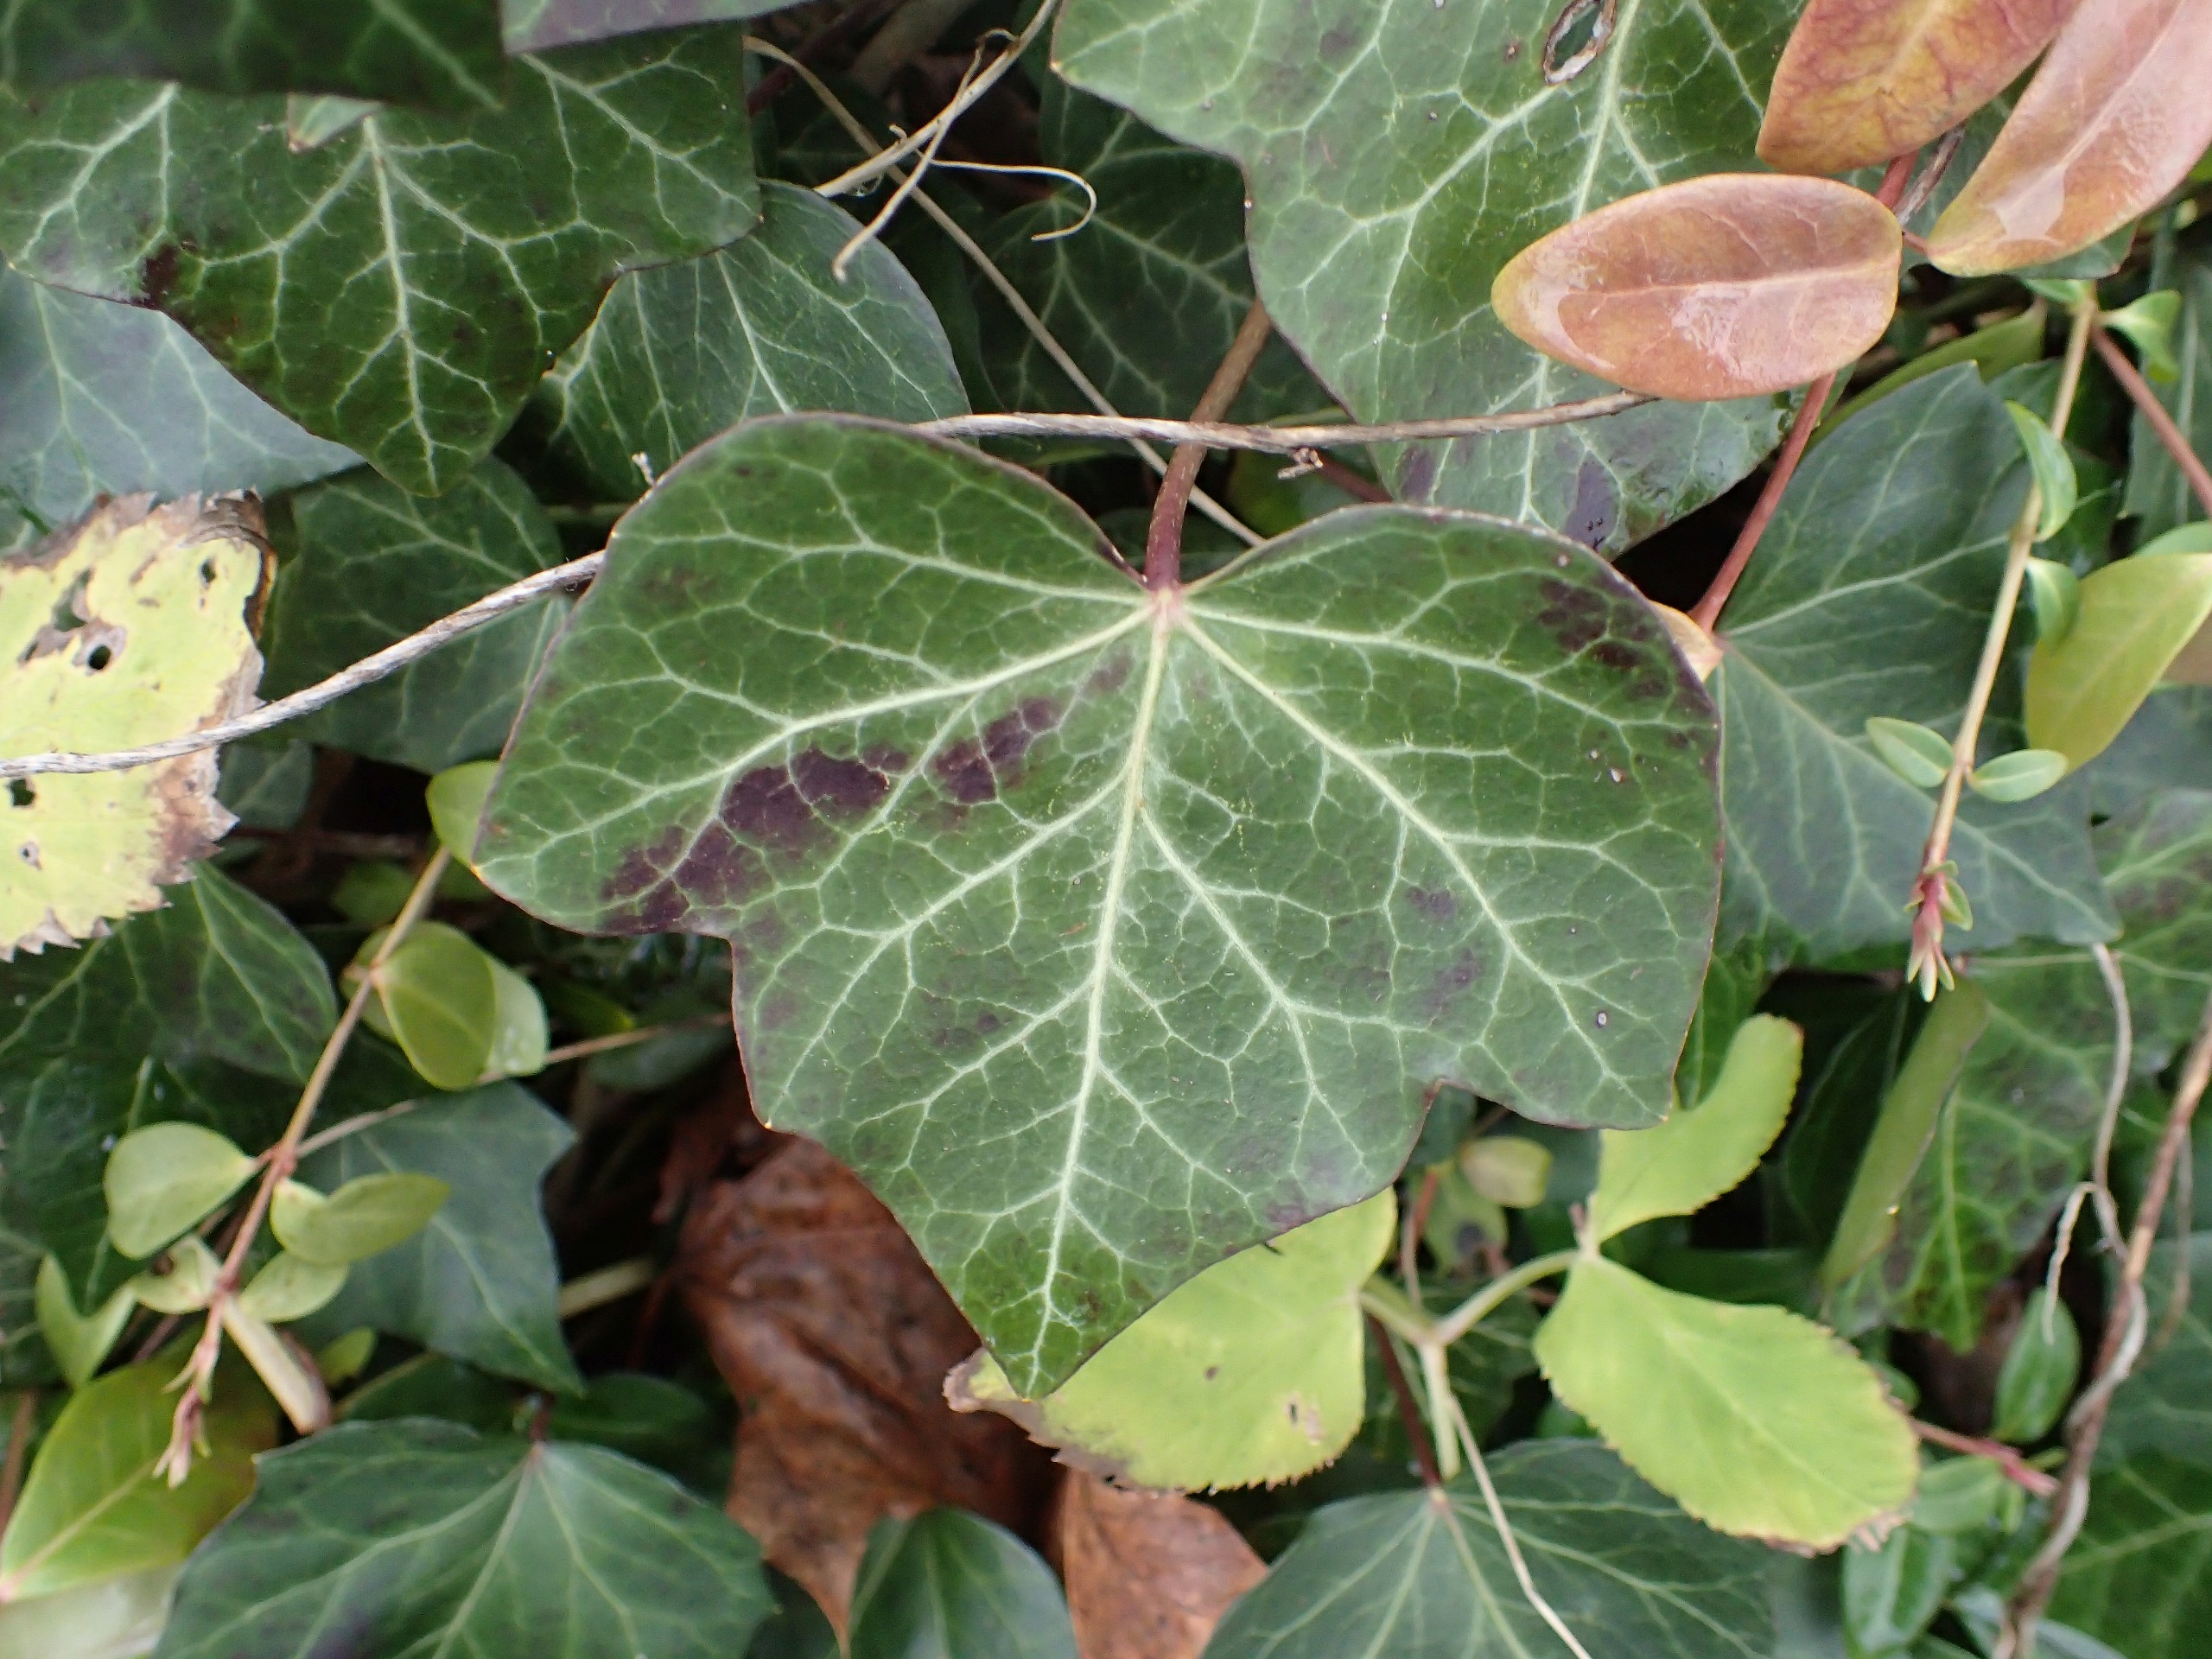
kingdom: Plantae
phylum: Tracheophyta
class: Magnoliopsida
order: Apiales
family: Araliaceae
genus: Hedera
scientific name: Hedera hibernica
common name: Irsk vedbend
